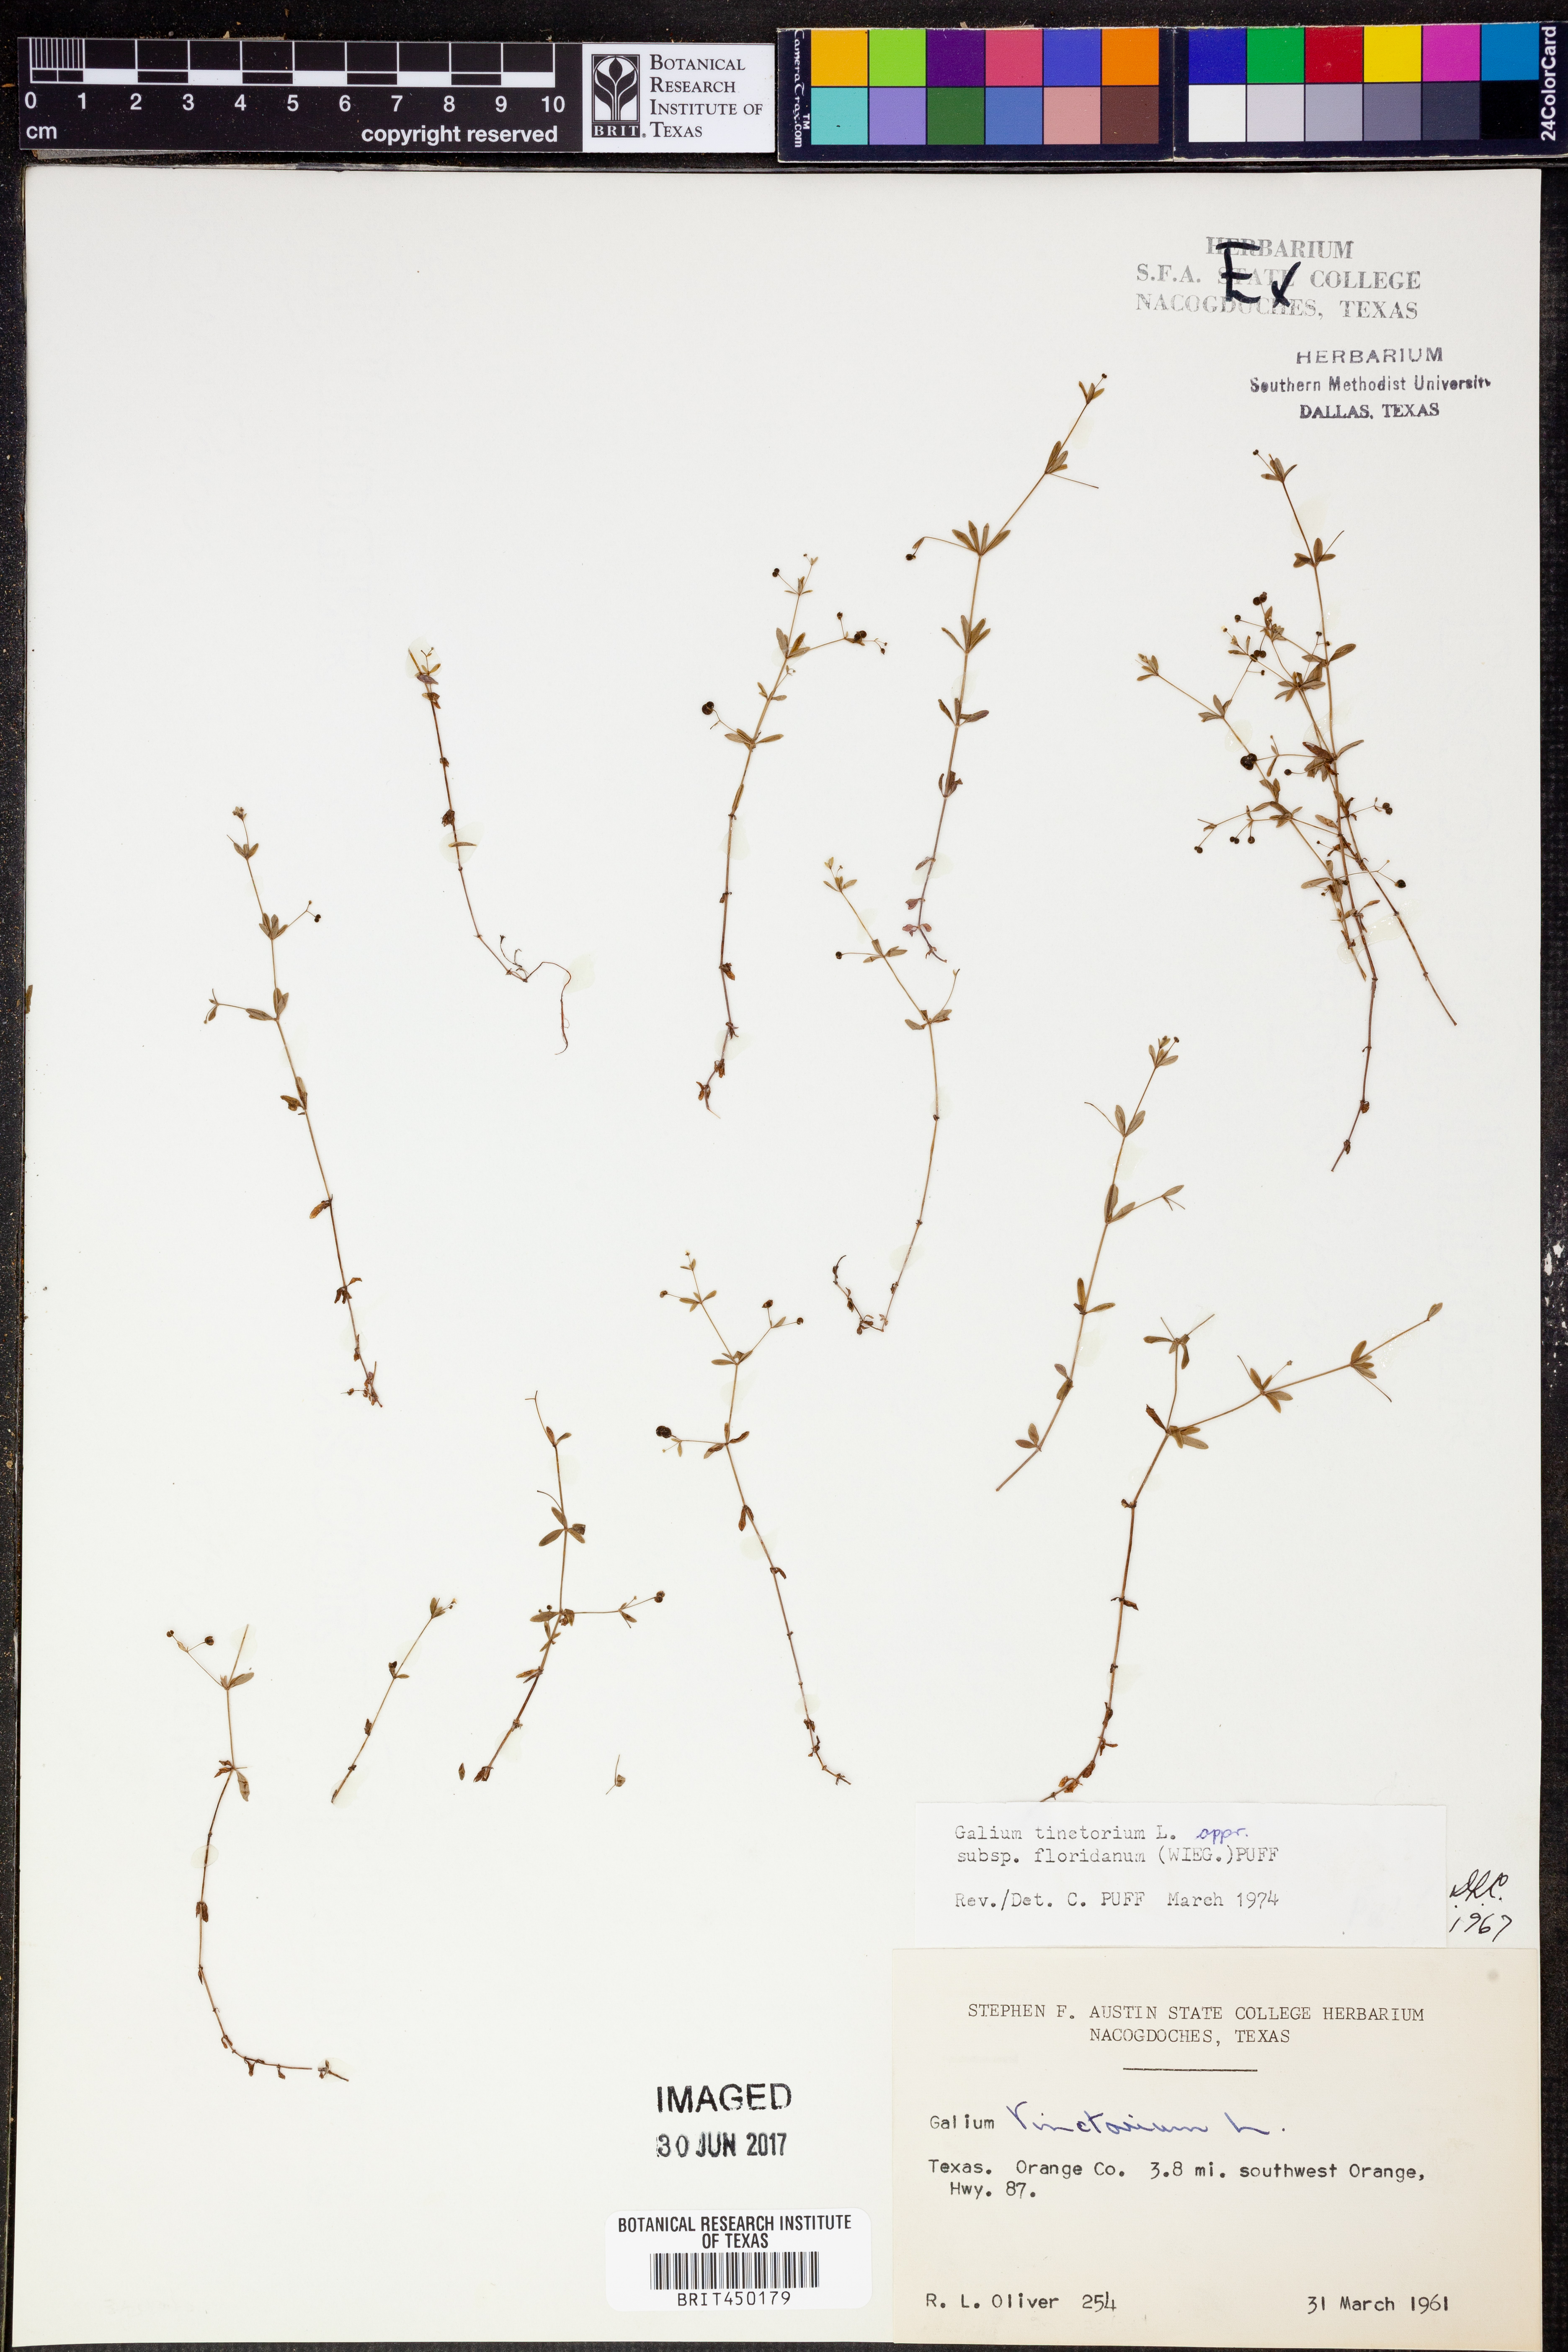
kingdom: Plantae
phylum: Tracheophyta
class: Magnoliopsida
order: Gentianales
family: Rubiaceae
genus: Galium
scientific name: Galium tinctorium
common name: Bedstraw
